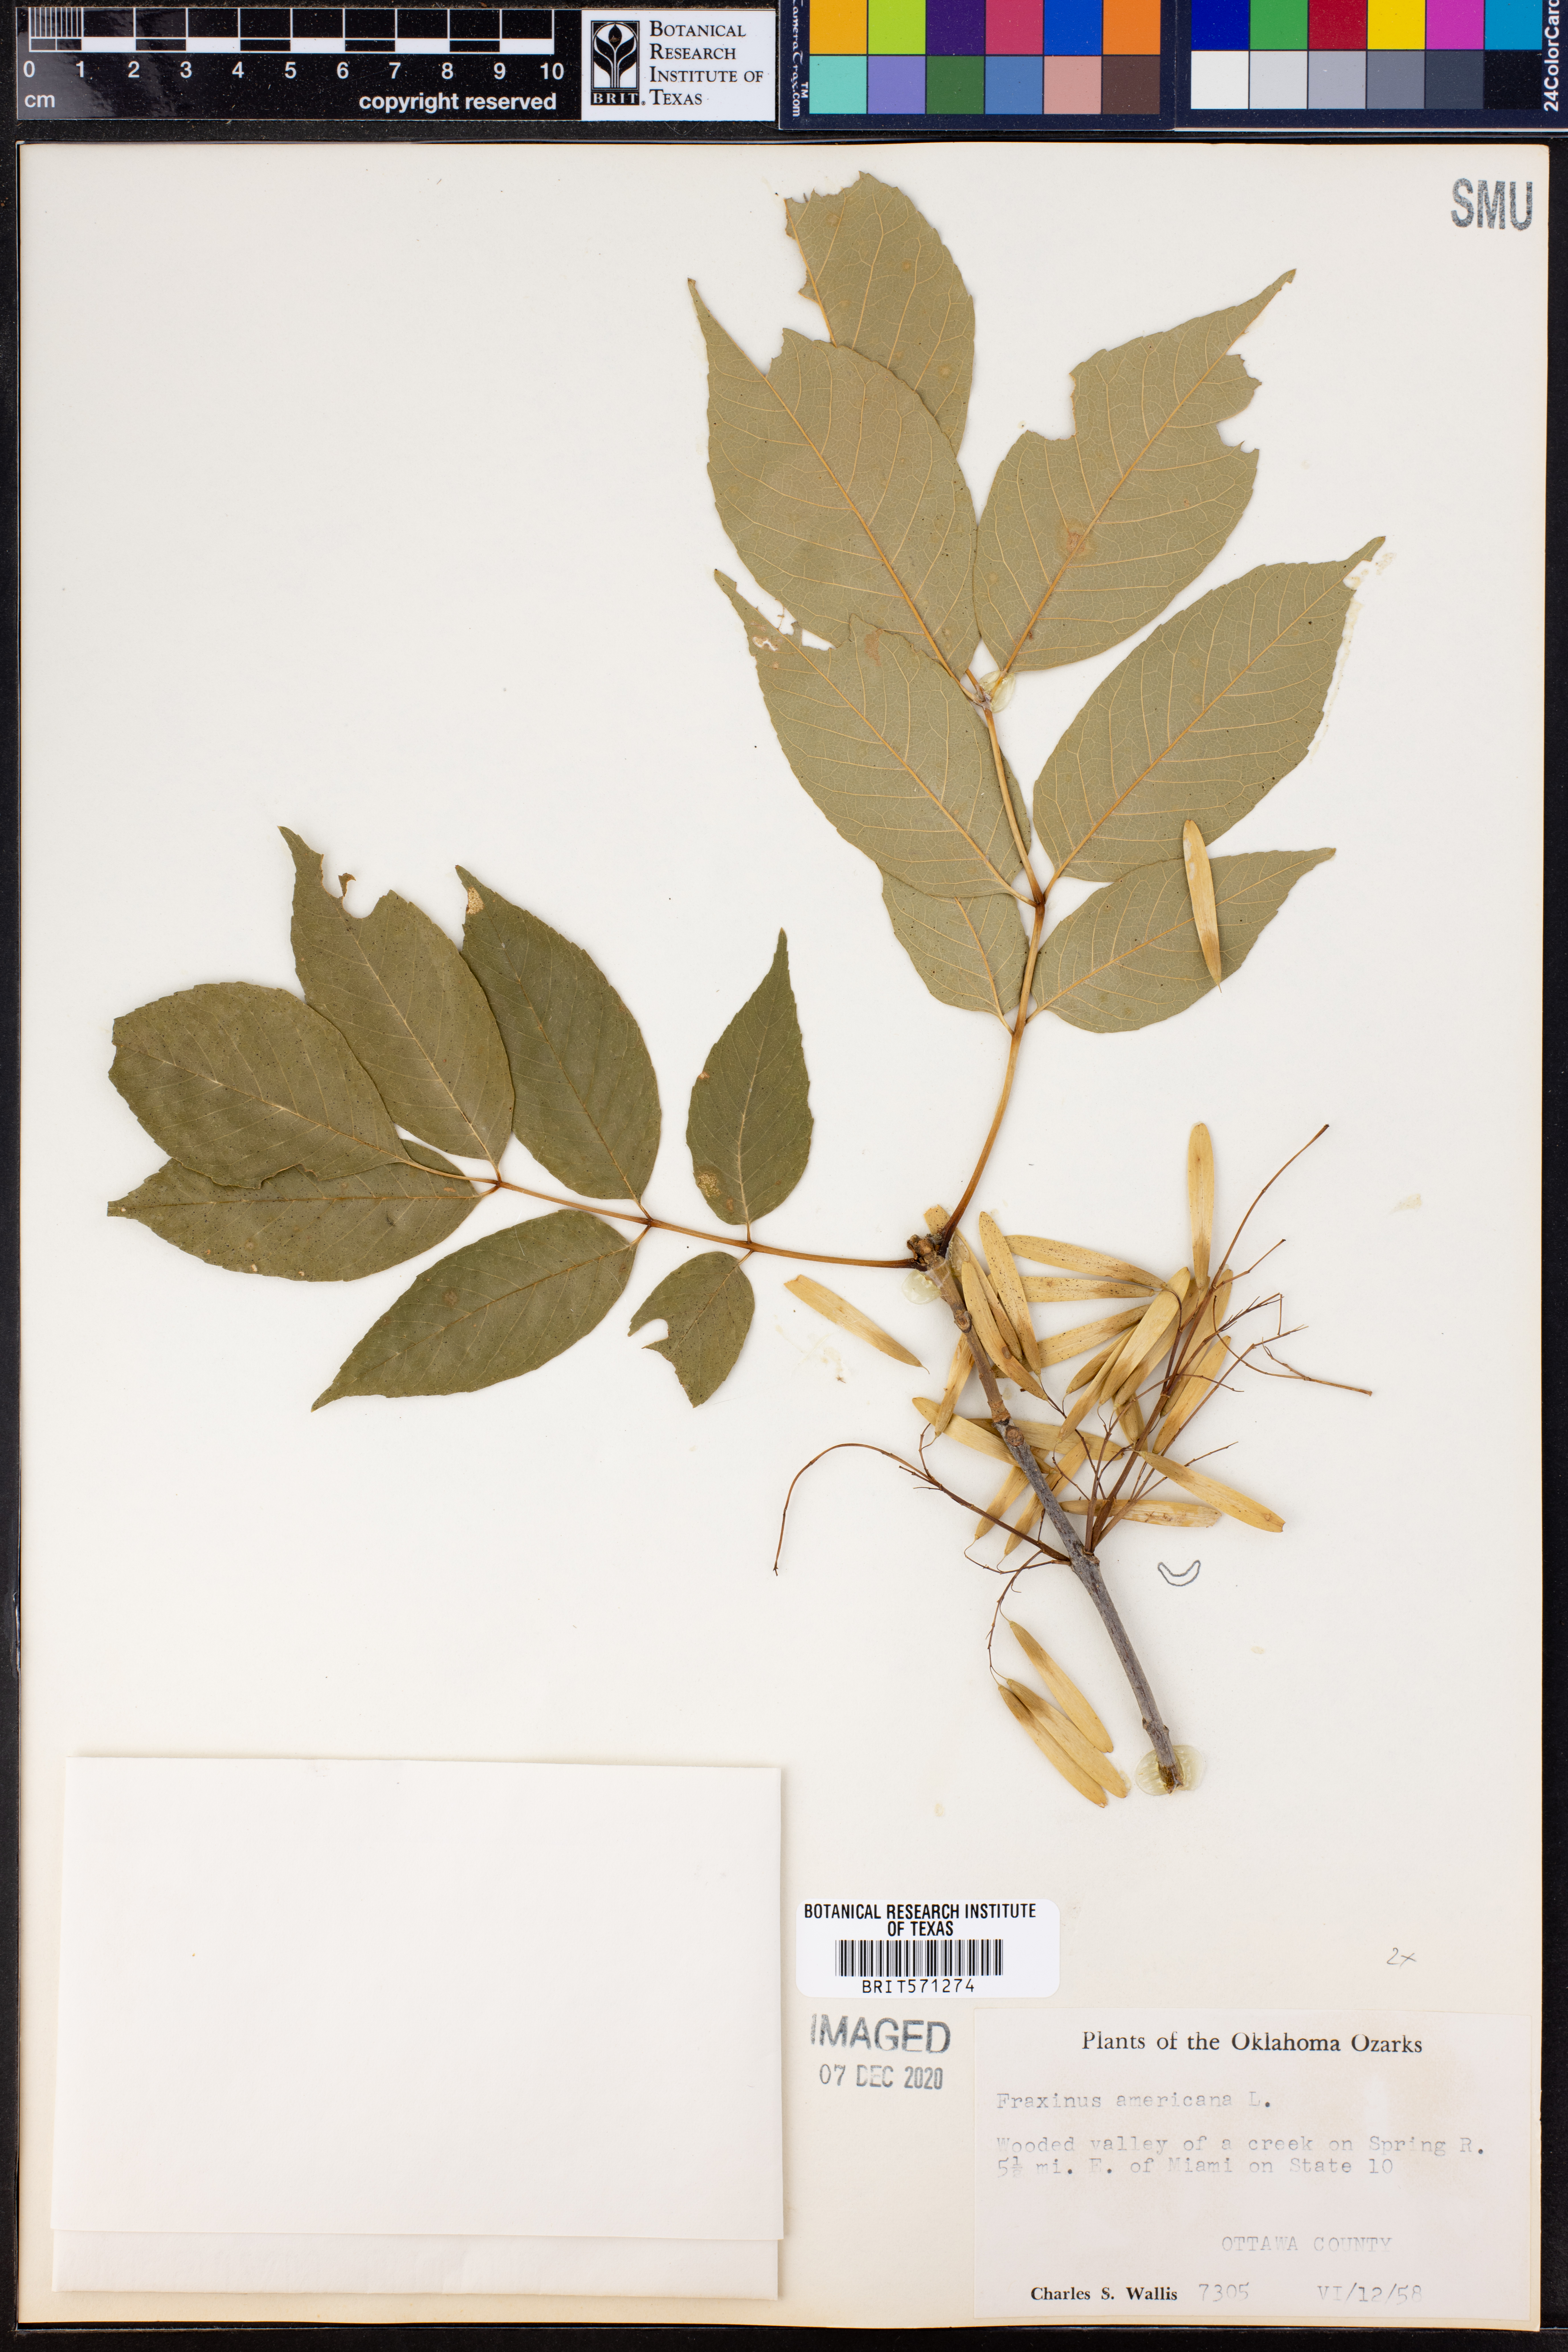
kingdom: Plantae
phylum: Tracheophyta
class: Magnoliopsida
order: Lamiales
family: Oleaceae
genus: Fraxinus
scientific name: Fraxinus americana
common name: White ash
